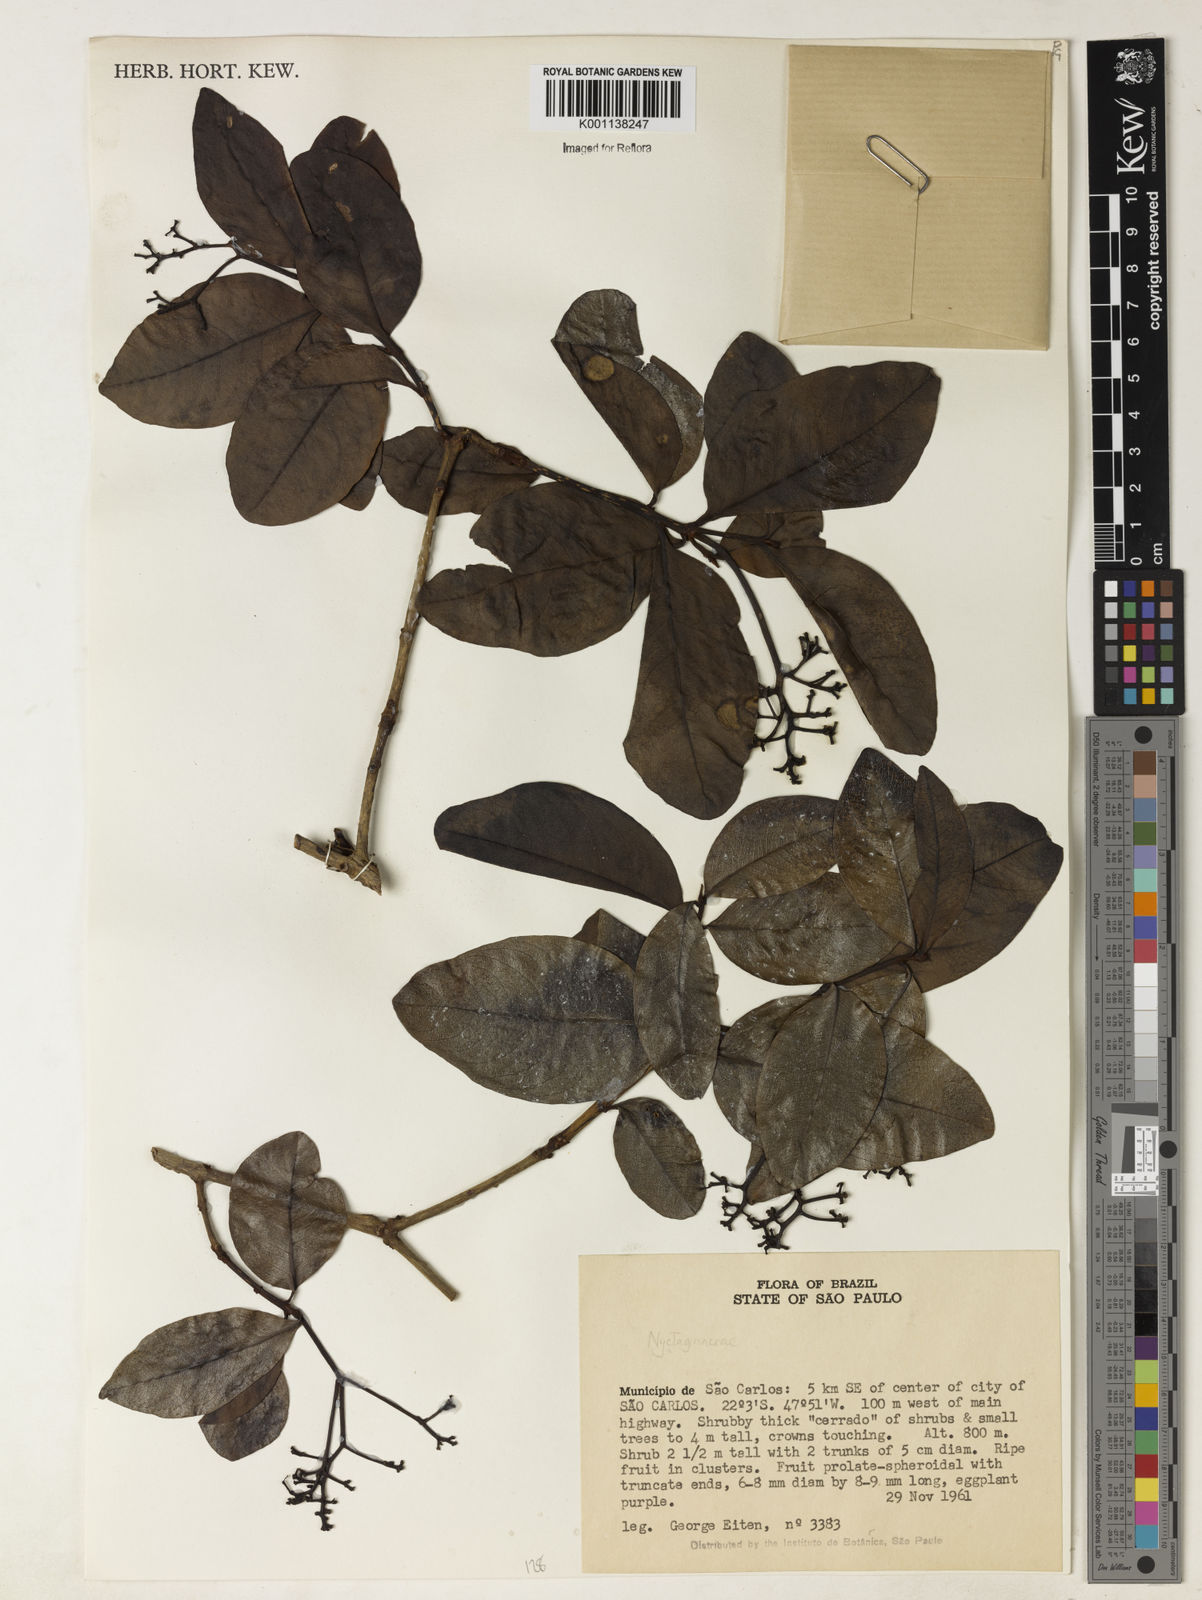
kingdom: Plantae
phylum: Tracheophyta
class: Magnoliopsida
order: Caryophyllales
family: Nyctaginaceae
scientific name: Nyctaginaceae
